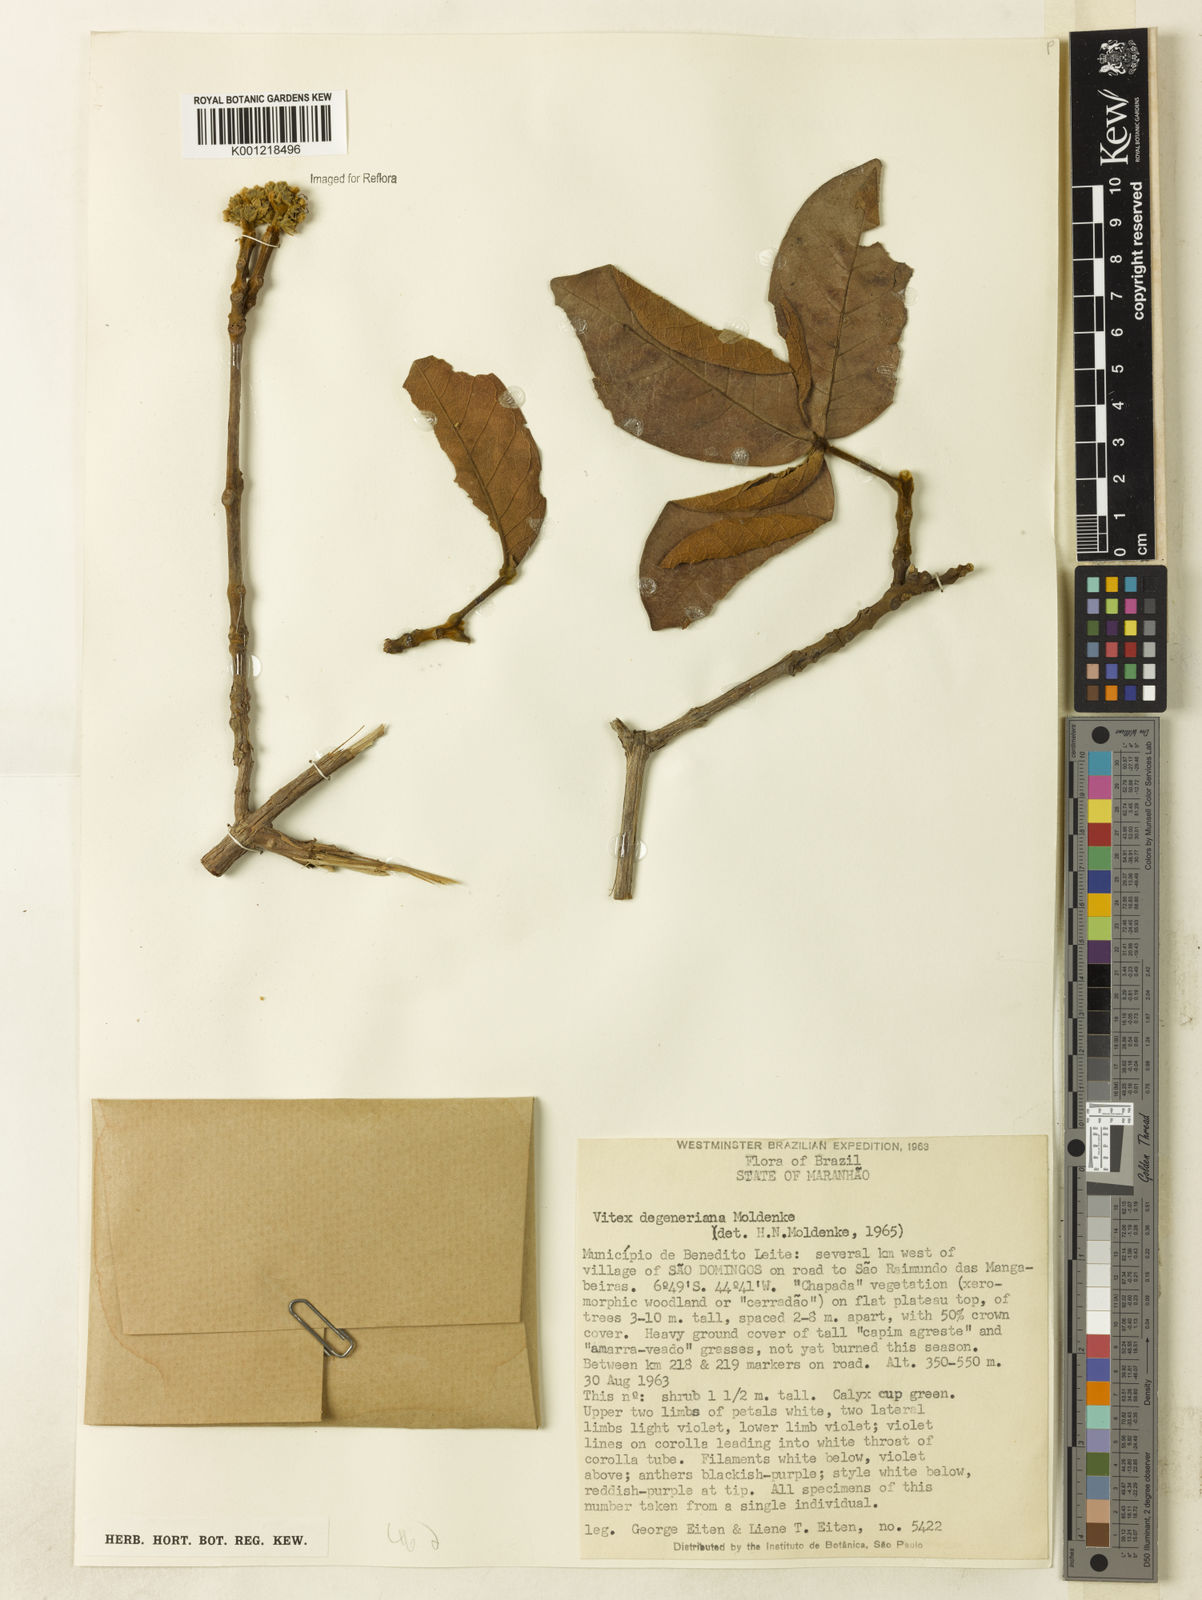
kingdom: Plantae
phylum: Tracheophyta
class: Magnoliopsida
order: Lamiales
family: Lamiaceae
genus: Vitex
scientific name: Vitex degeneriana
